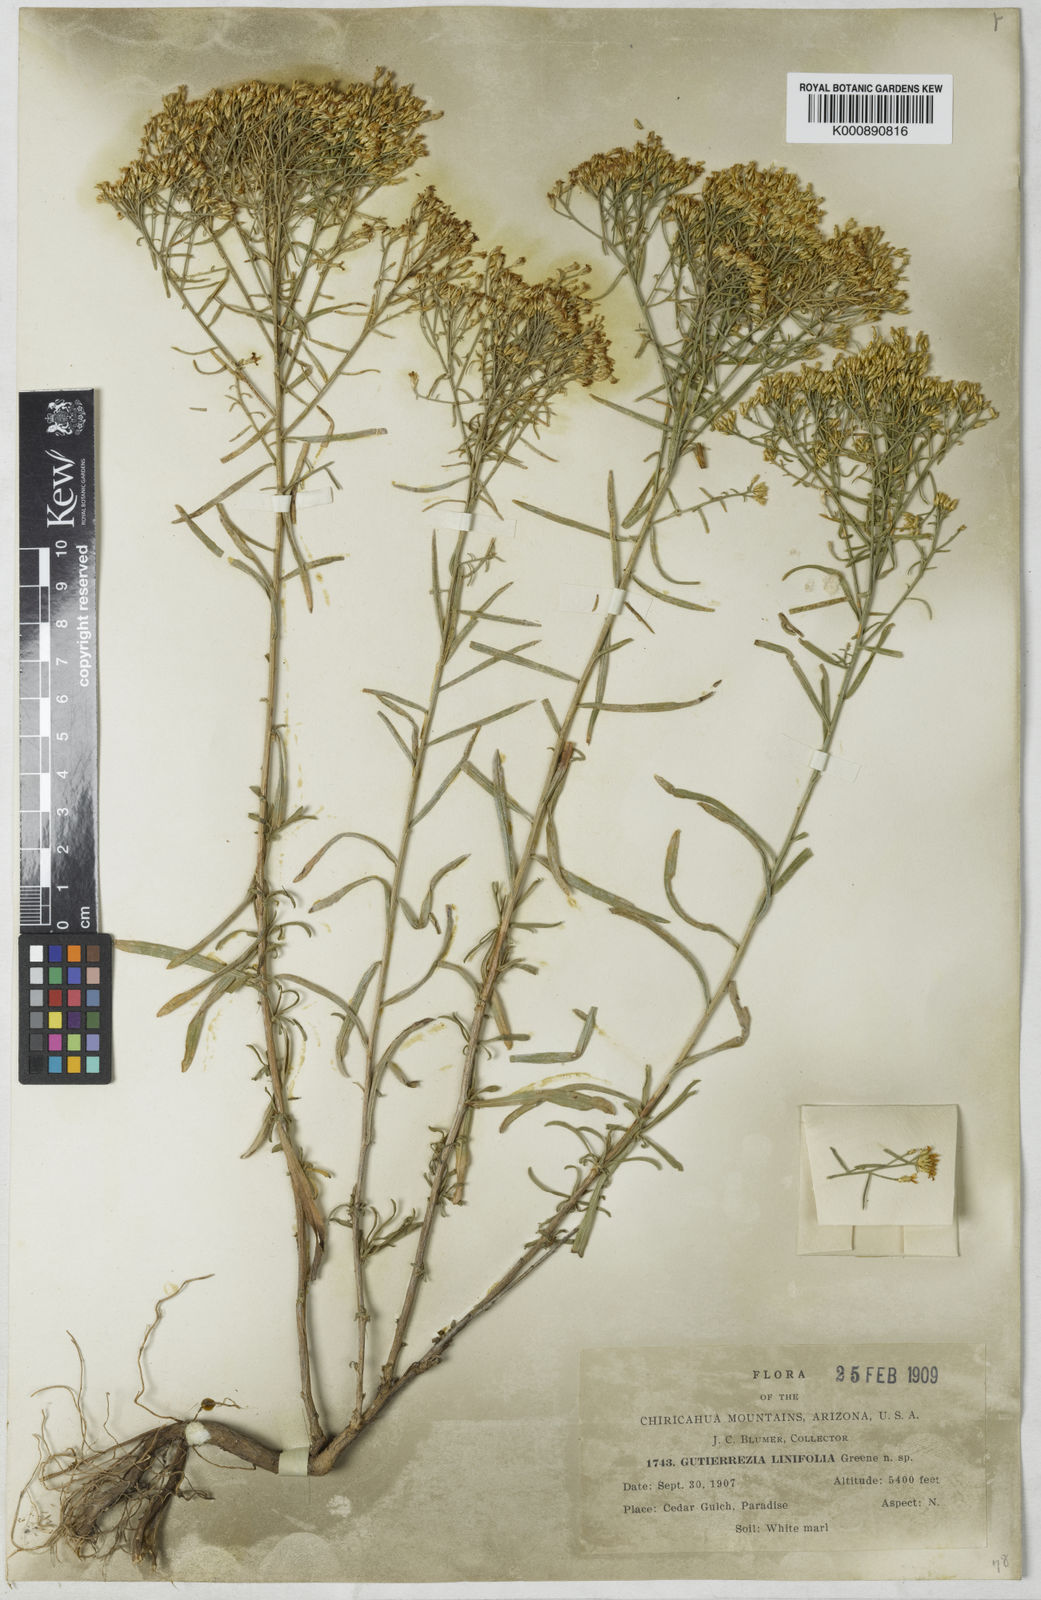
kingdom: Plantae
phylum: Tracheophyta
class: Magnoliopsida
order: Asterales
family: Asteraceae
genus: Gutierrezia
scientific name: Gutierrezia
